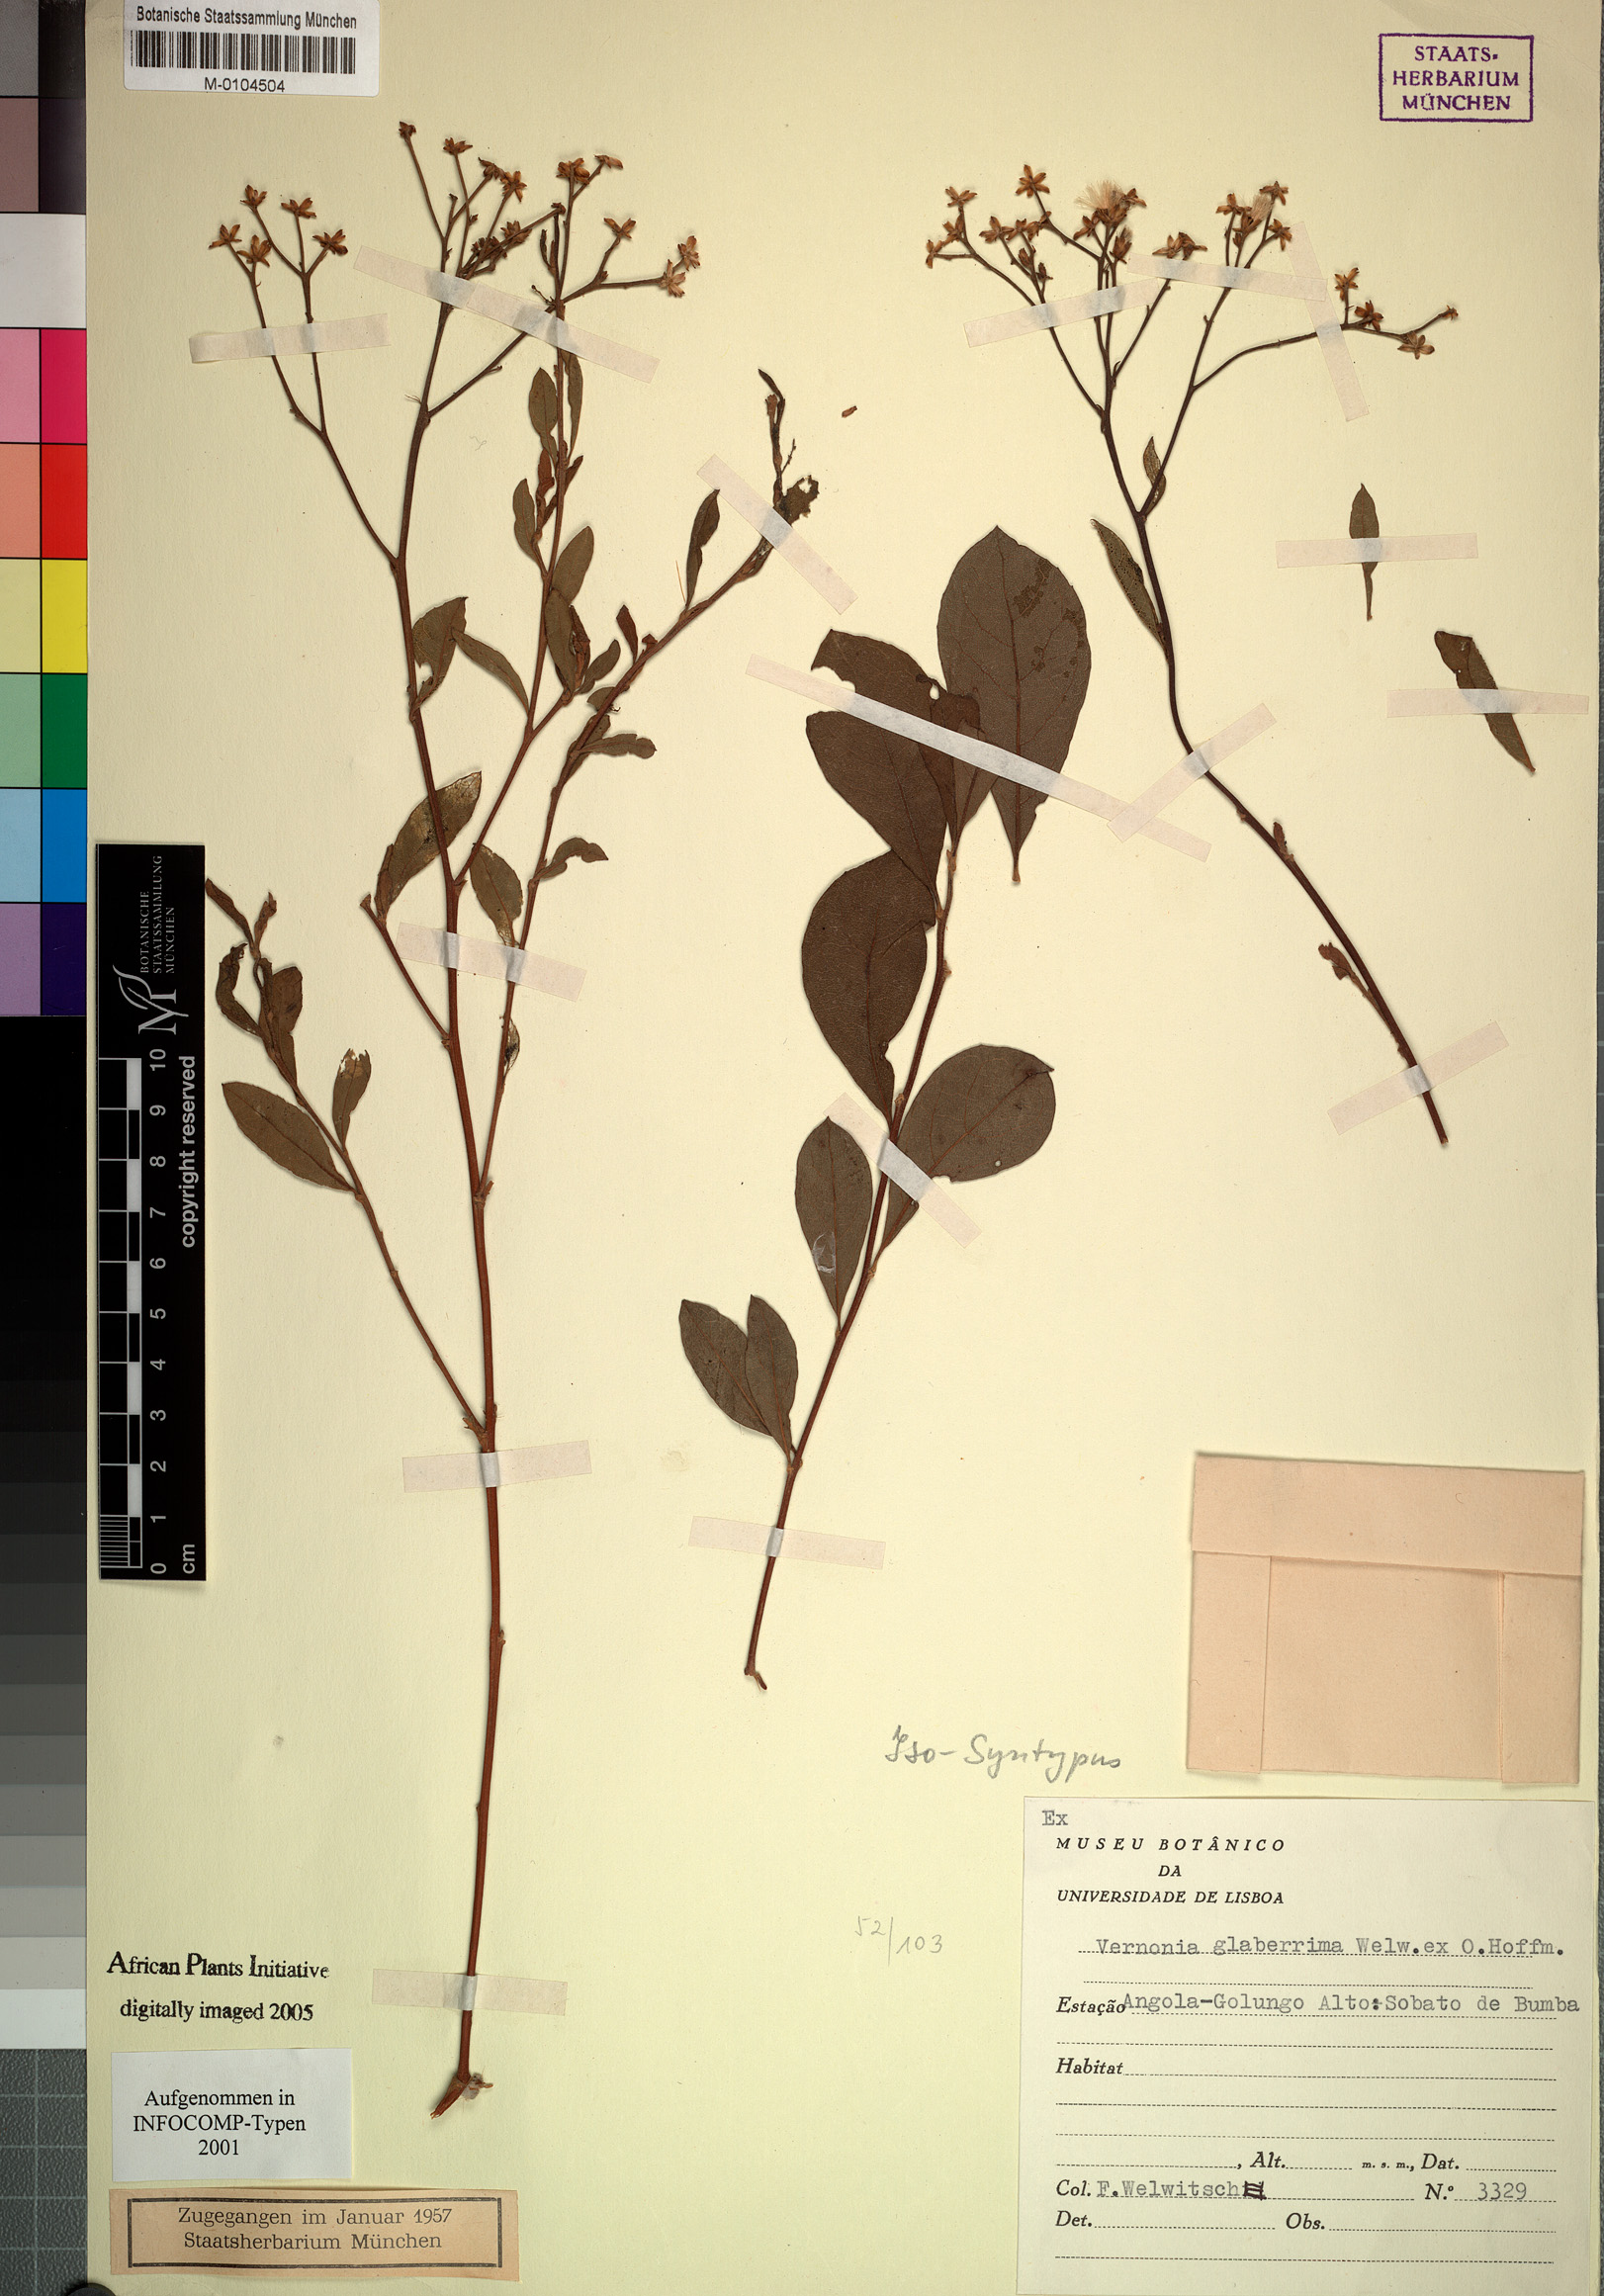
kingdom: Plantae
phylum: Tracheophyta
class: Magnoliopsida
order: Asterales
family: Asteraceae
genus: Gymnanthemum
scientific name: Gymnanthemum glaberrimum
